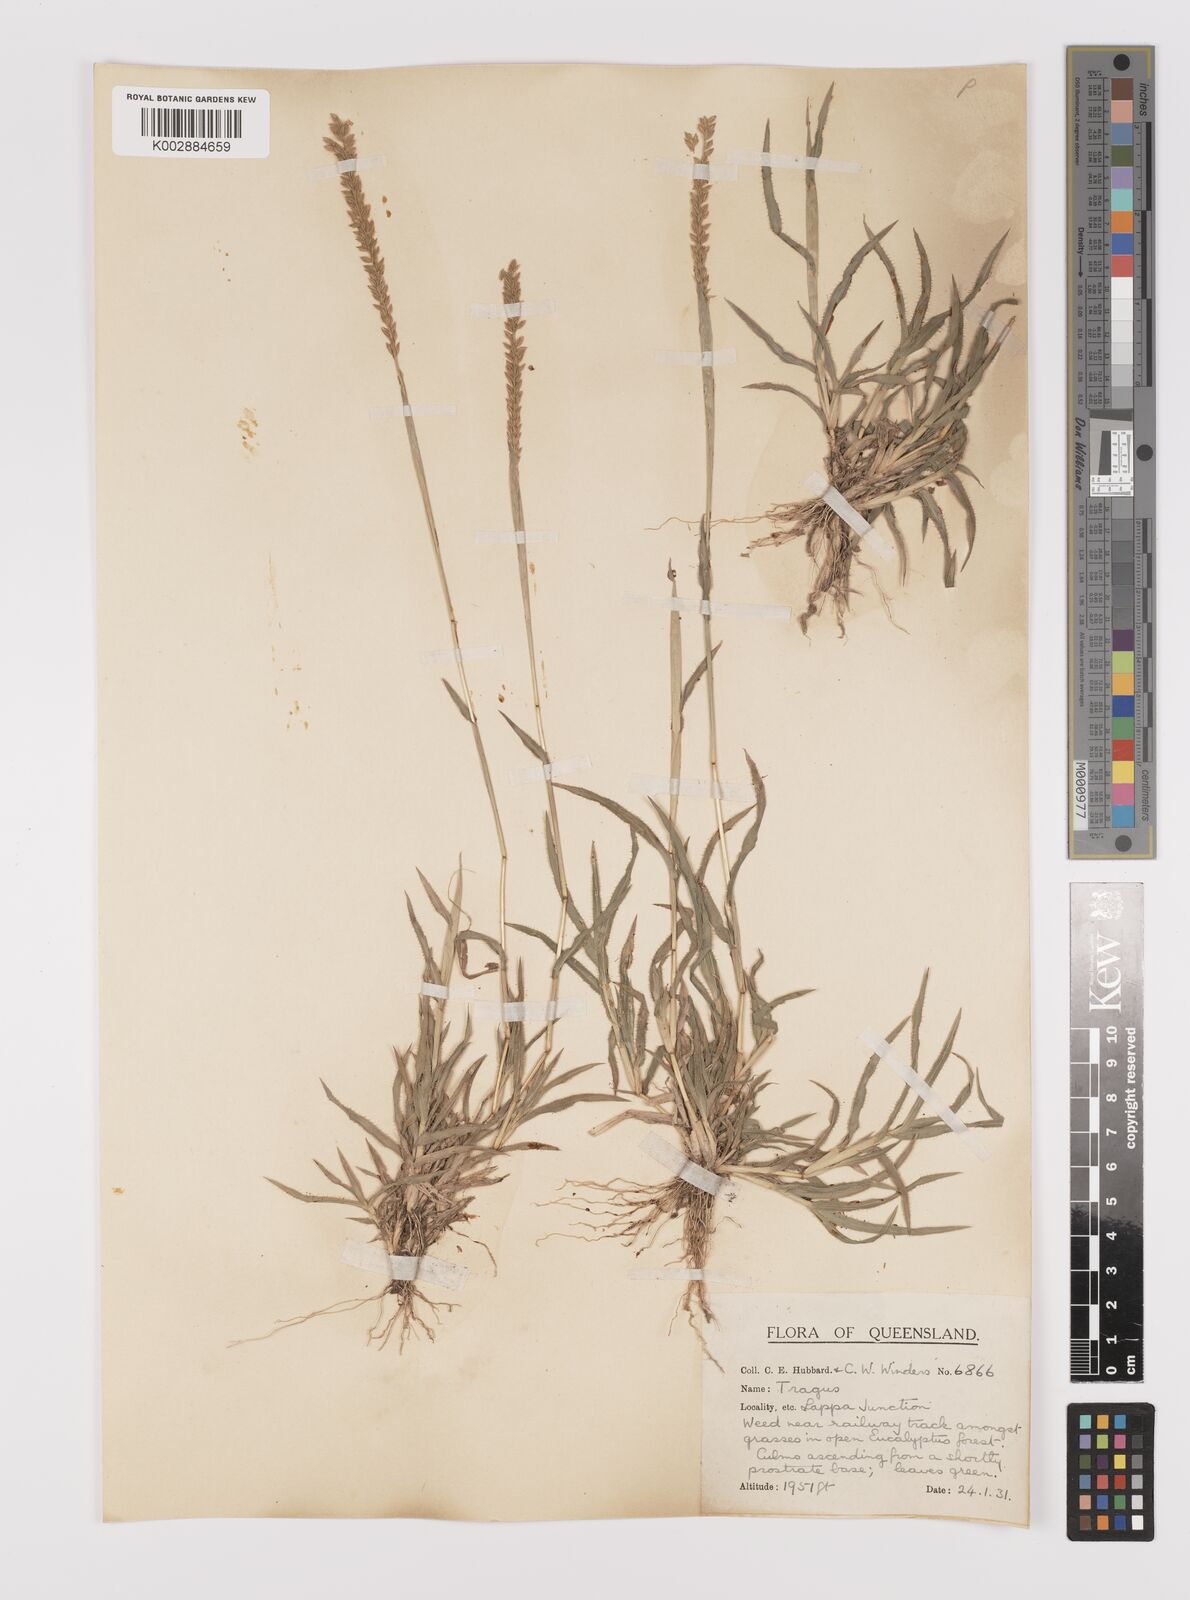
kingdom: Plantae
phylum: Tracheophyta
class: Liliopsida
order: Poales
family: Poaceae
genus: Tragus
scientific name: Tragus australianus
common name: Australian bur-grass
